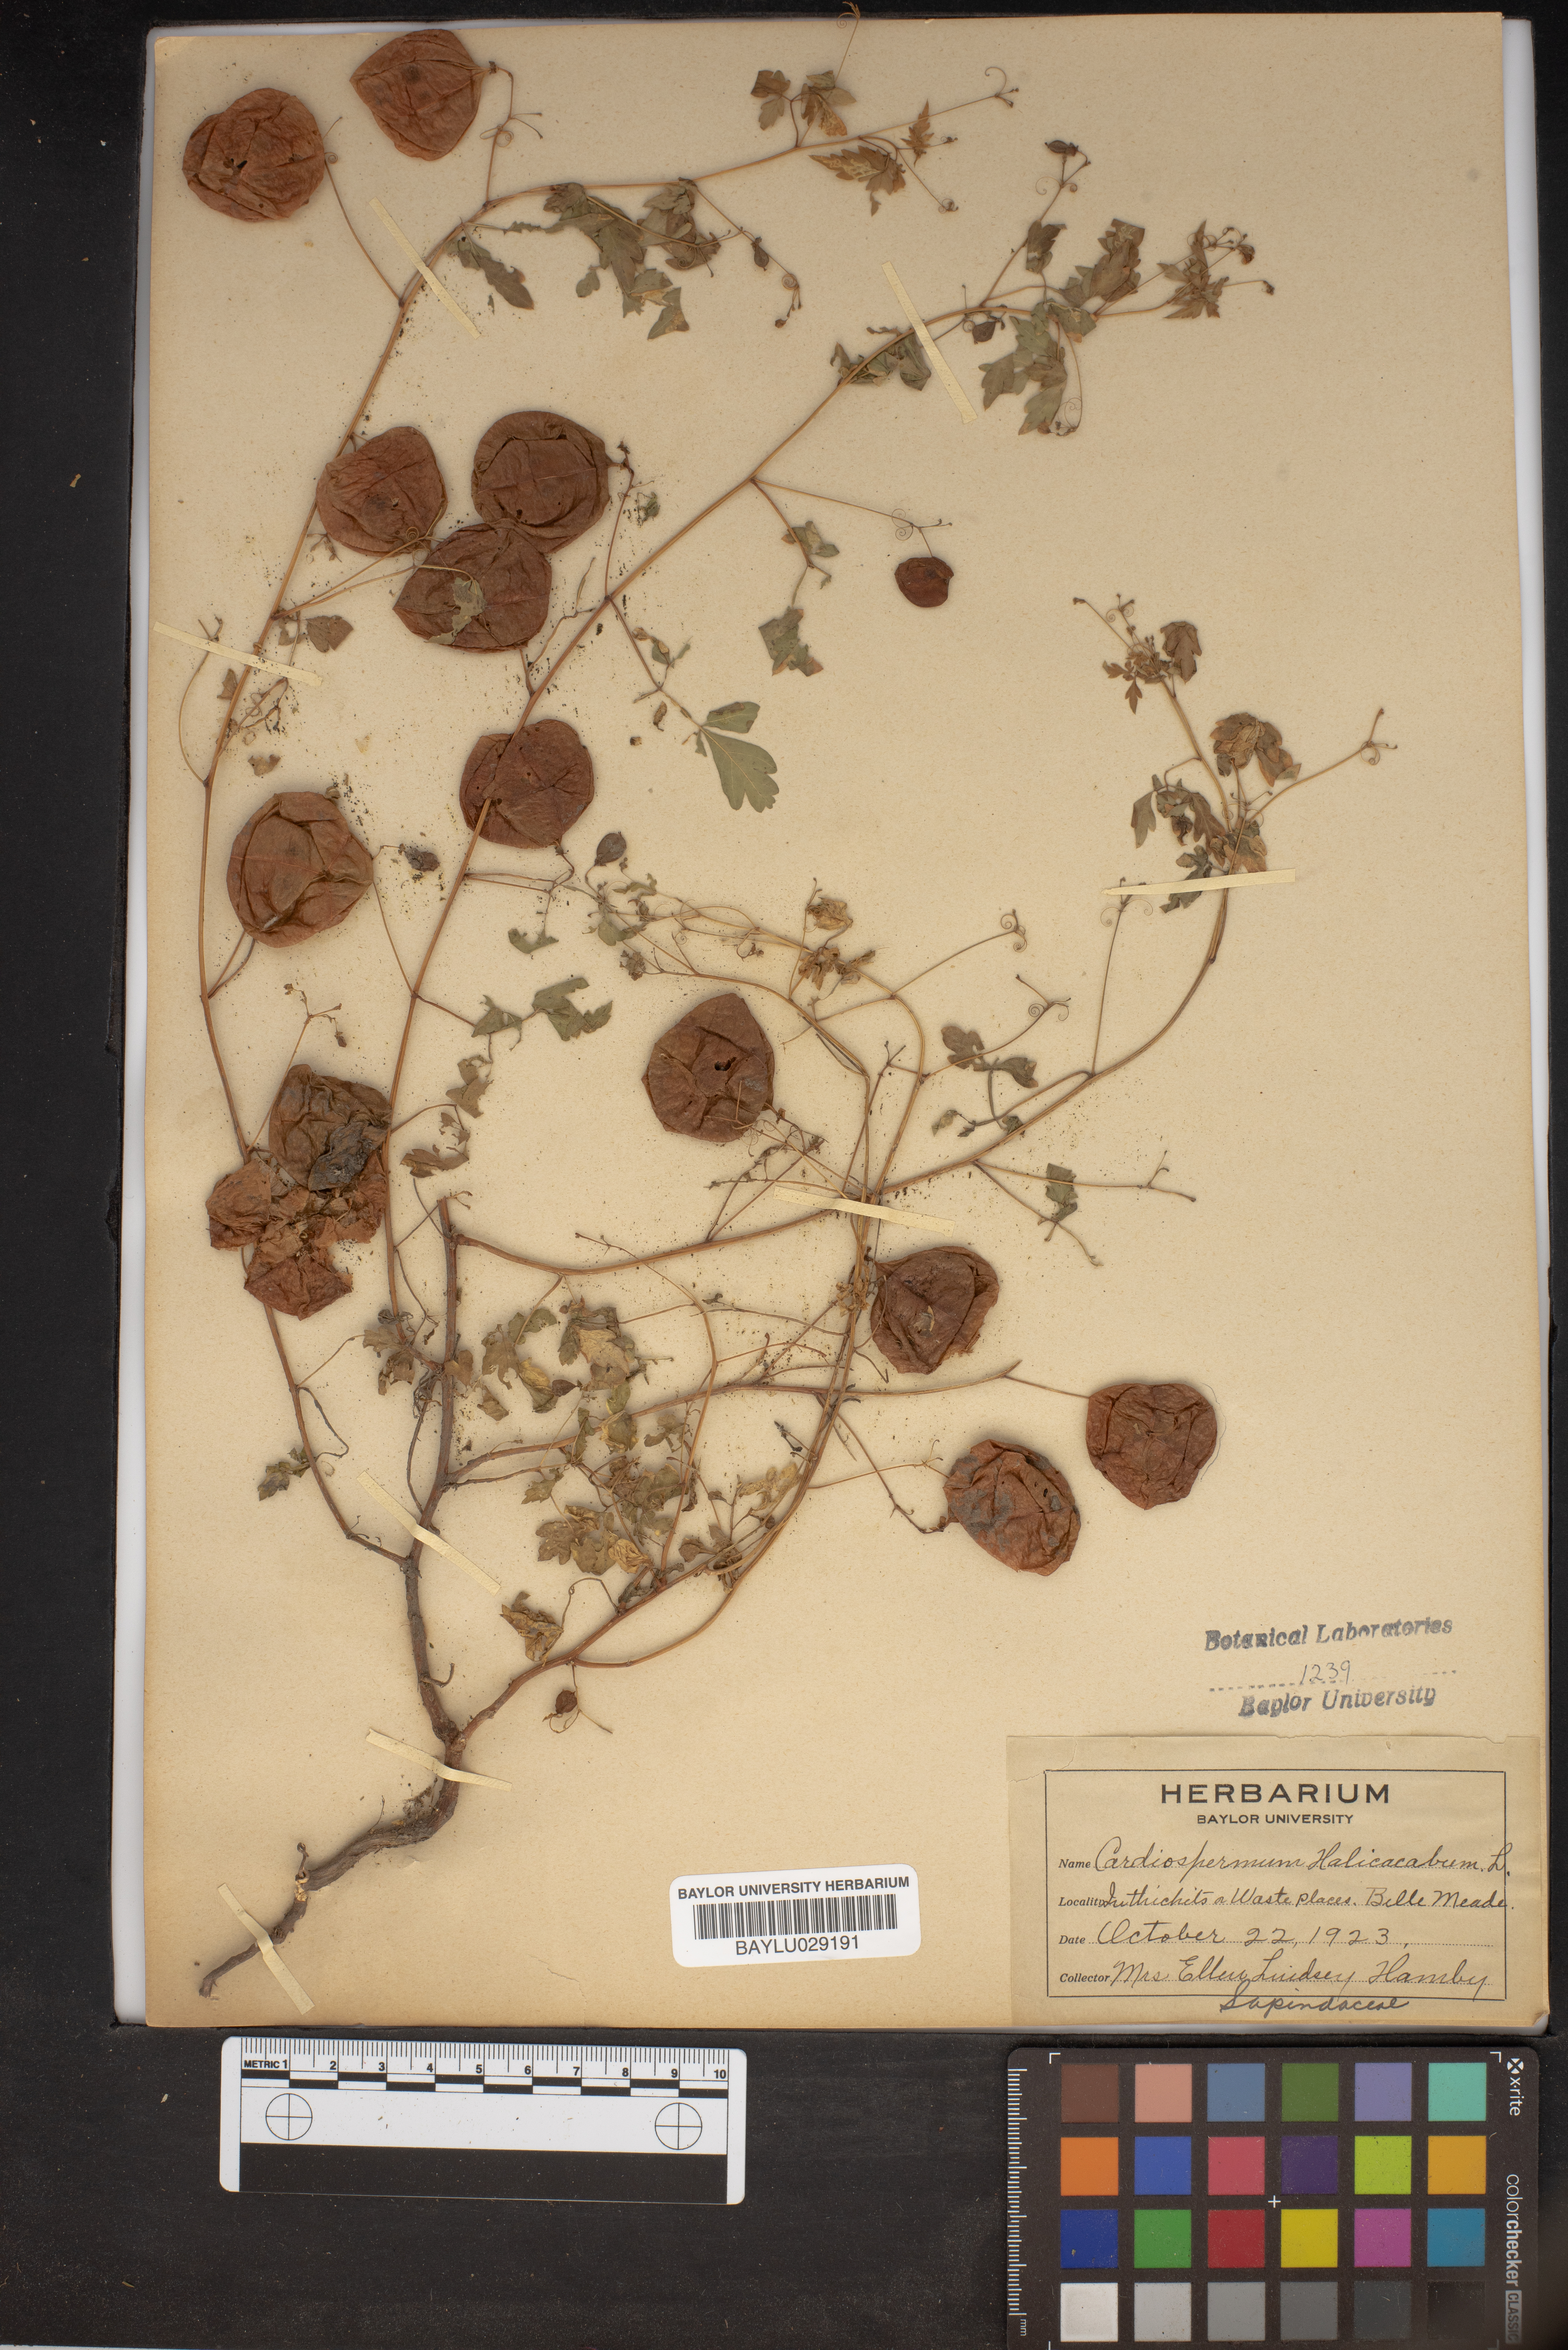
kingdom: Plantae
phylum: Tracheophyta
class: Magnoliopsida
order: Sapindales
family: Sapindaceae
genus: Cardiospermum
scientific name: Cardiospermum halicacabum
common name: Balloon vine
